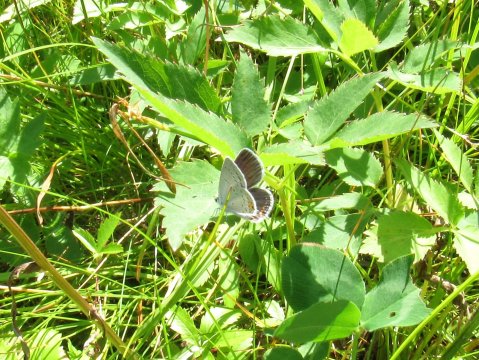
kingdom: Animalia
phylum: Arthropoda
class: Insecta
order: Lepidoptera
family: Lycaenidae
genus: Elkalyce
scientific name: Elkalyce comyntas
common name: Eastern Tailed-Blue
